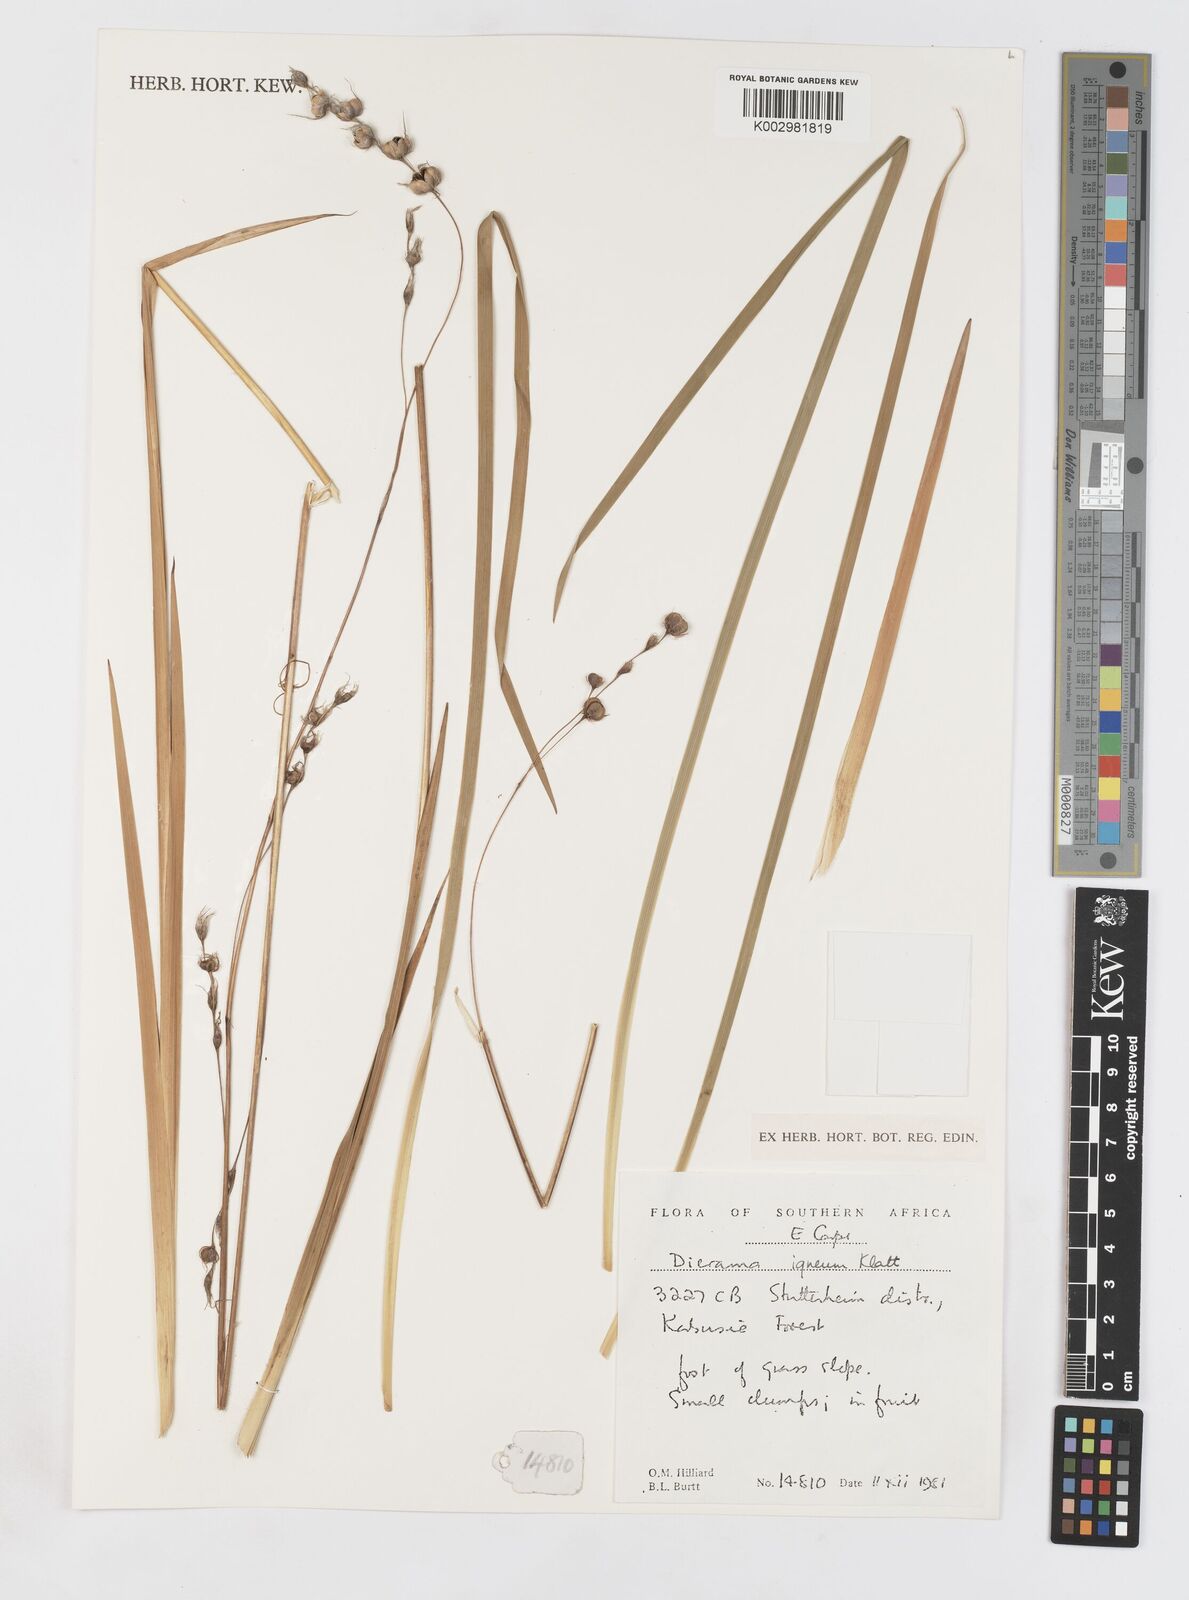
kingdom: Plantae
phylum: Tracheophyta
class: Liliopsida
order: Asparagales
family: Iridaceae
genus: Dierama
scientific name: Dierama igneum
